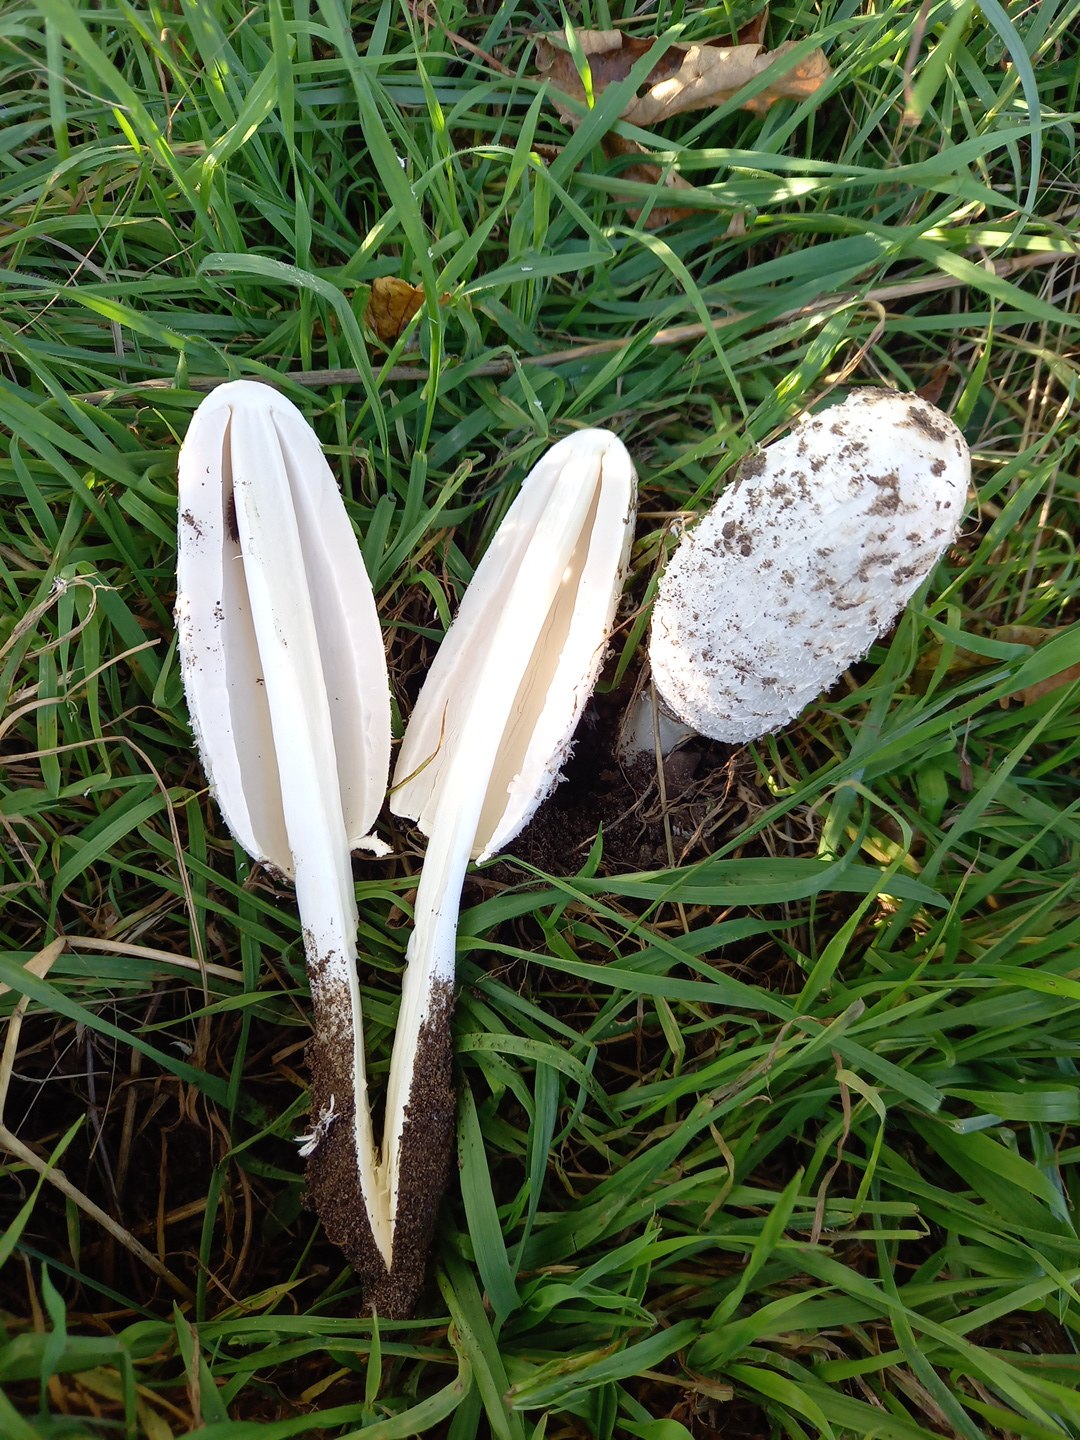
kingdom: Fungi
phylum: Basidiomycota
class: Agaricomycetes
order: Agaricales
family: Agaricaceae
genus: Coprinus
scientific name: Coprinus comatus
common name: stor parykhat
